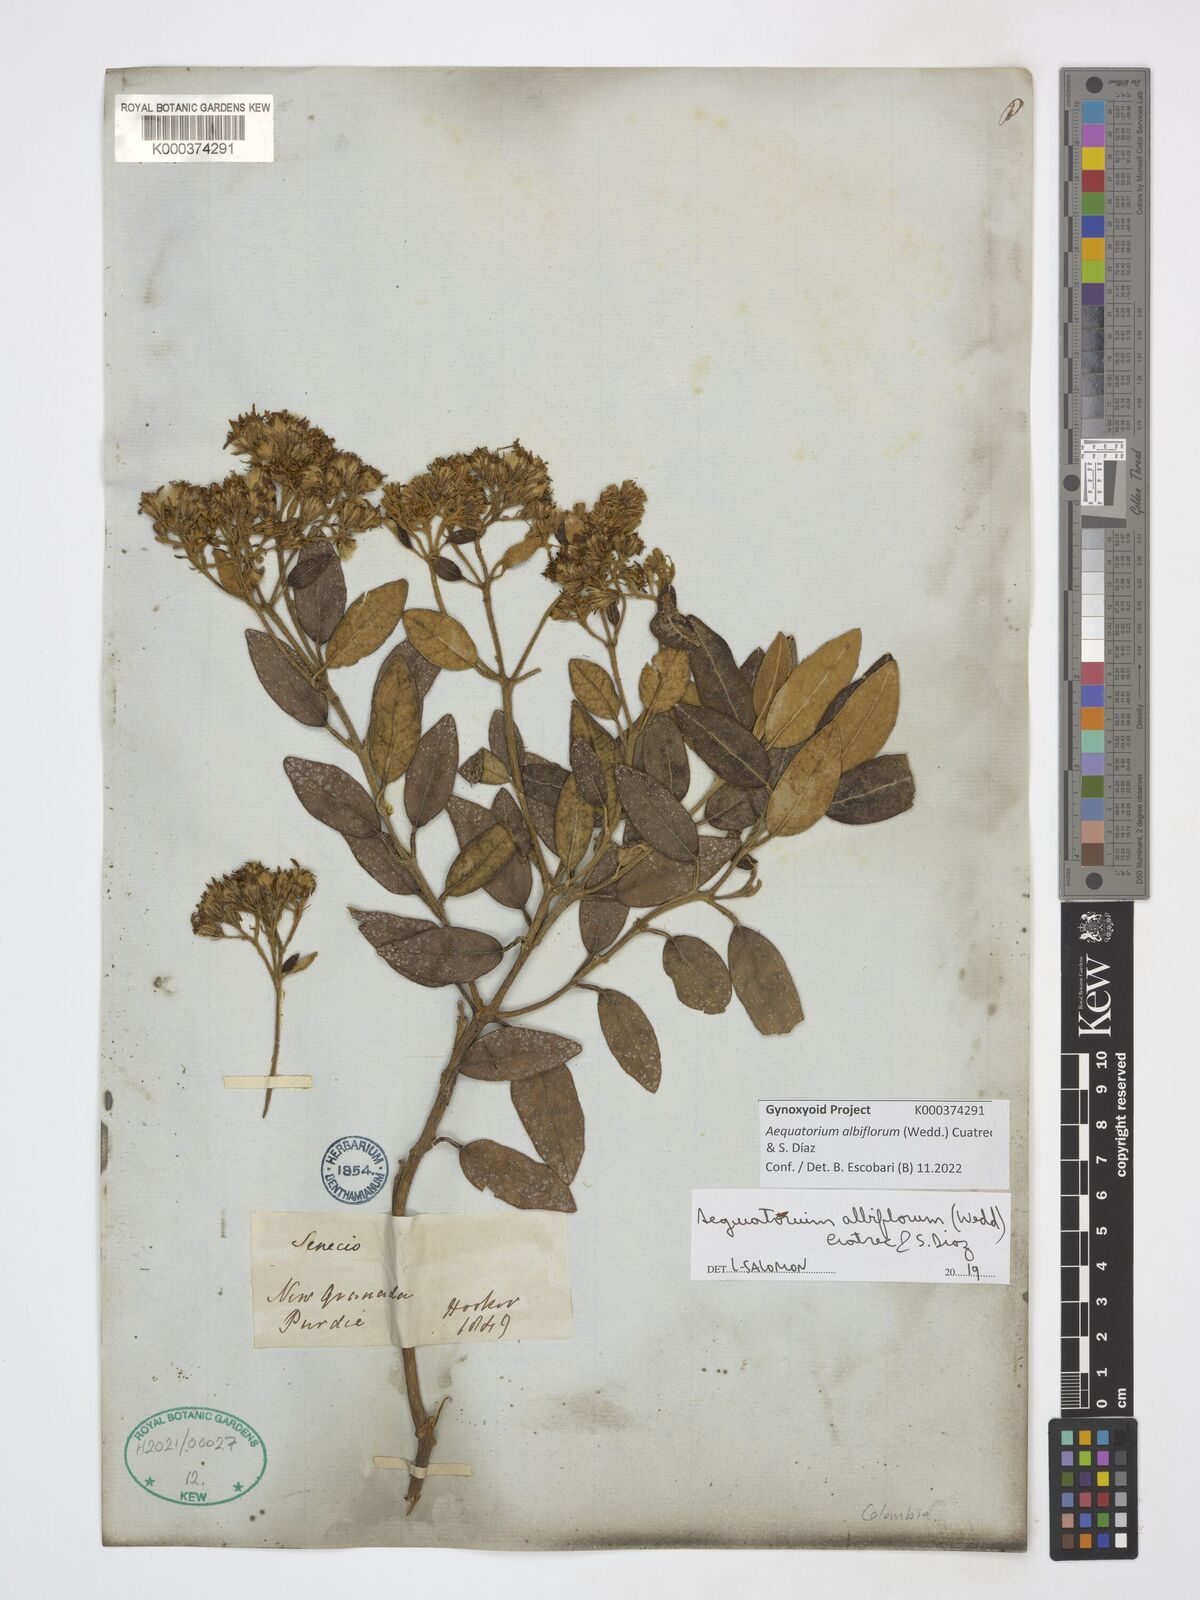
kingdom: Plantae
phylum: Tracheophyta
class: Magnoliopsida
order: Asterales
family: Asteraceae
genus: Aequatorium
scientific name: Aequatorium albiflorum
